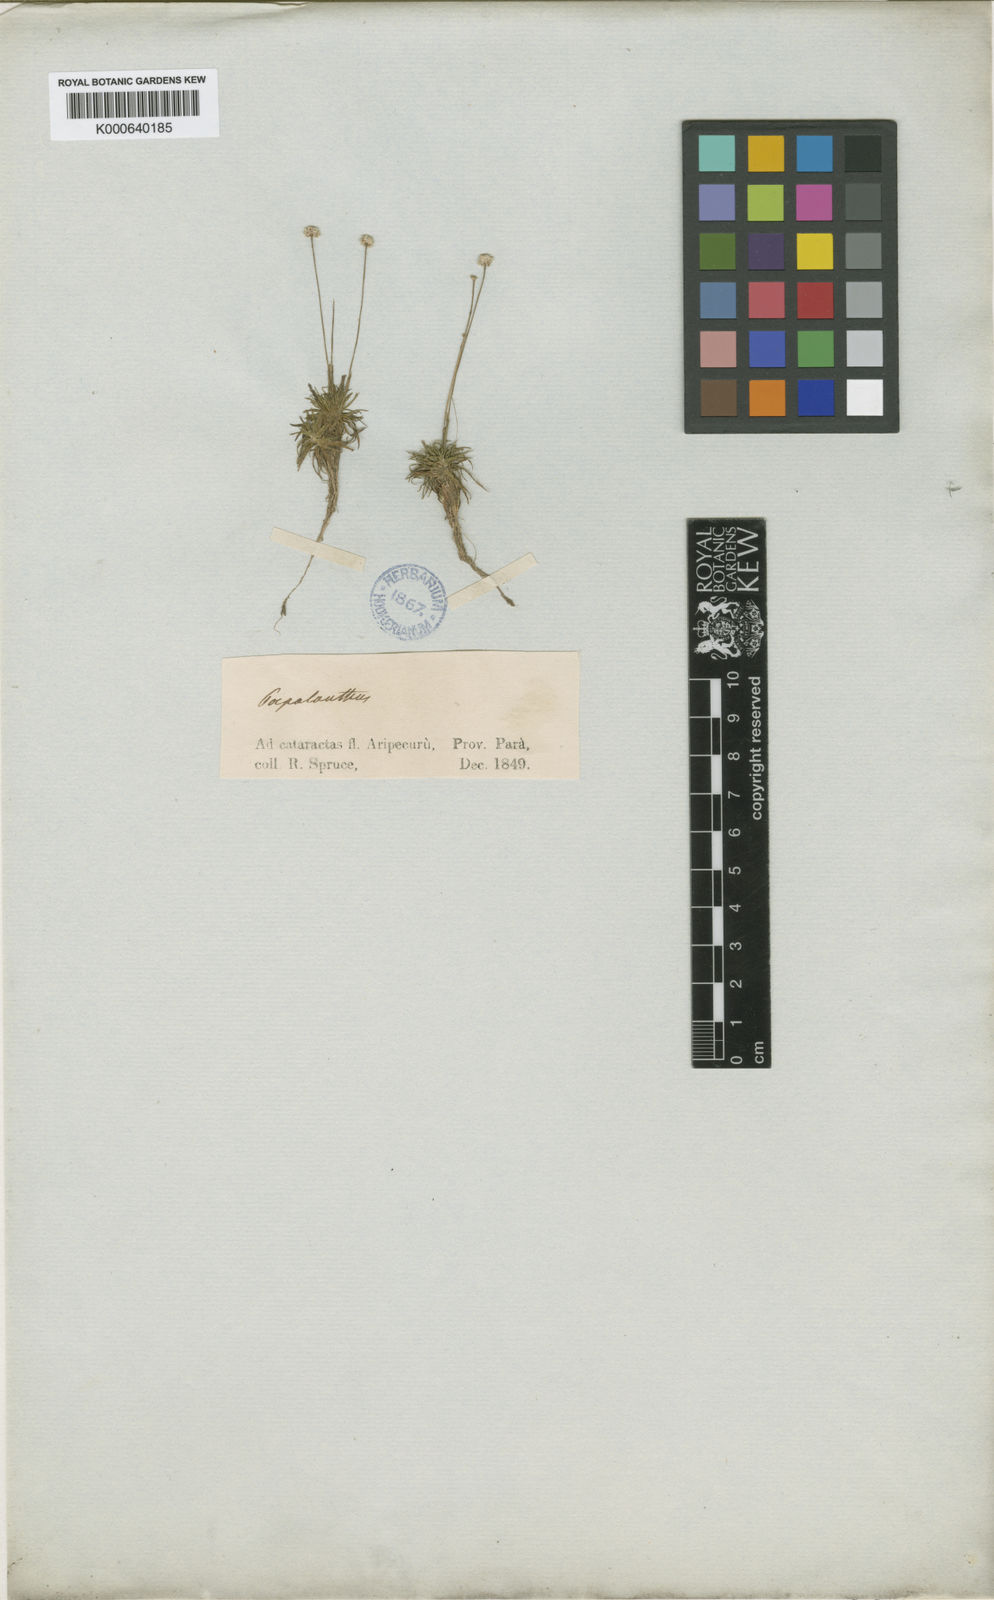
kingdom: Plantae
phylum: Tracheophyta
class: Liliopsida
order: Poales
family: Eriocaulaceae
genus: Syngonanthus
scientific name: Syngonanthus
